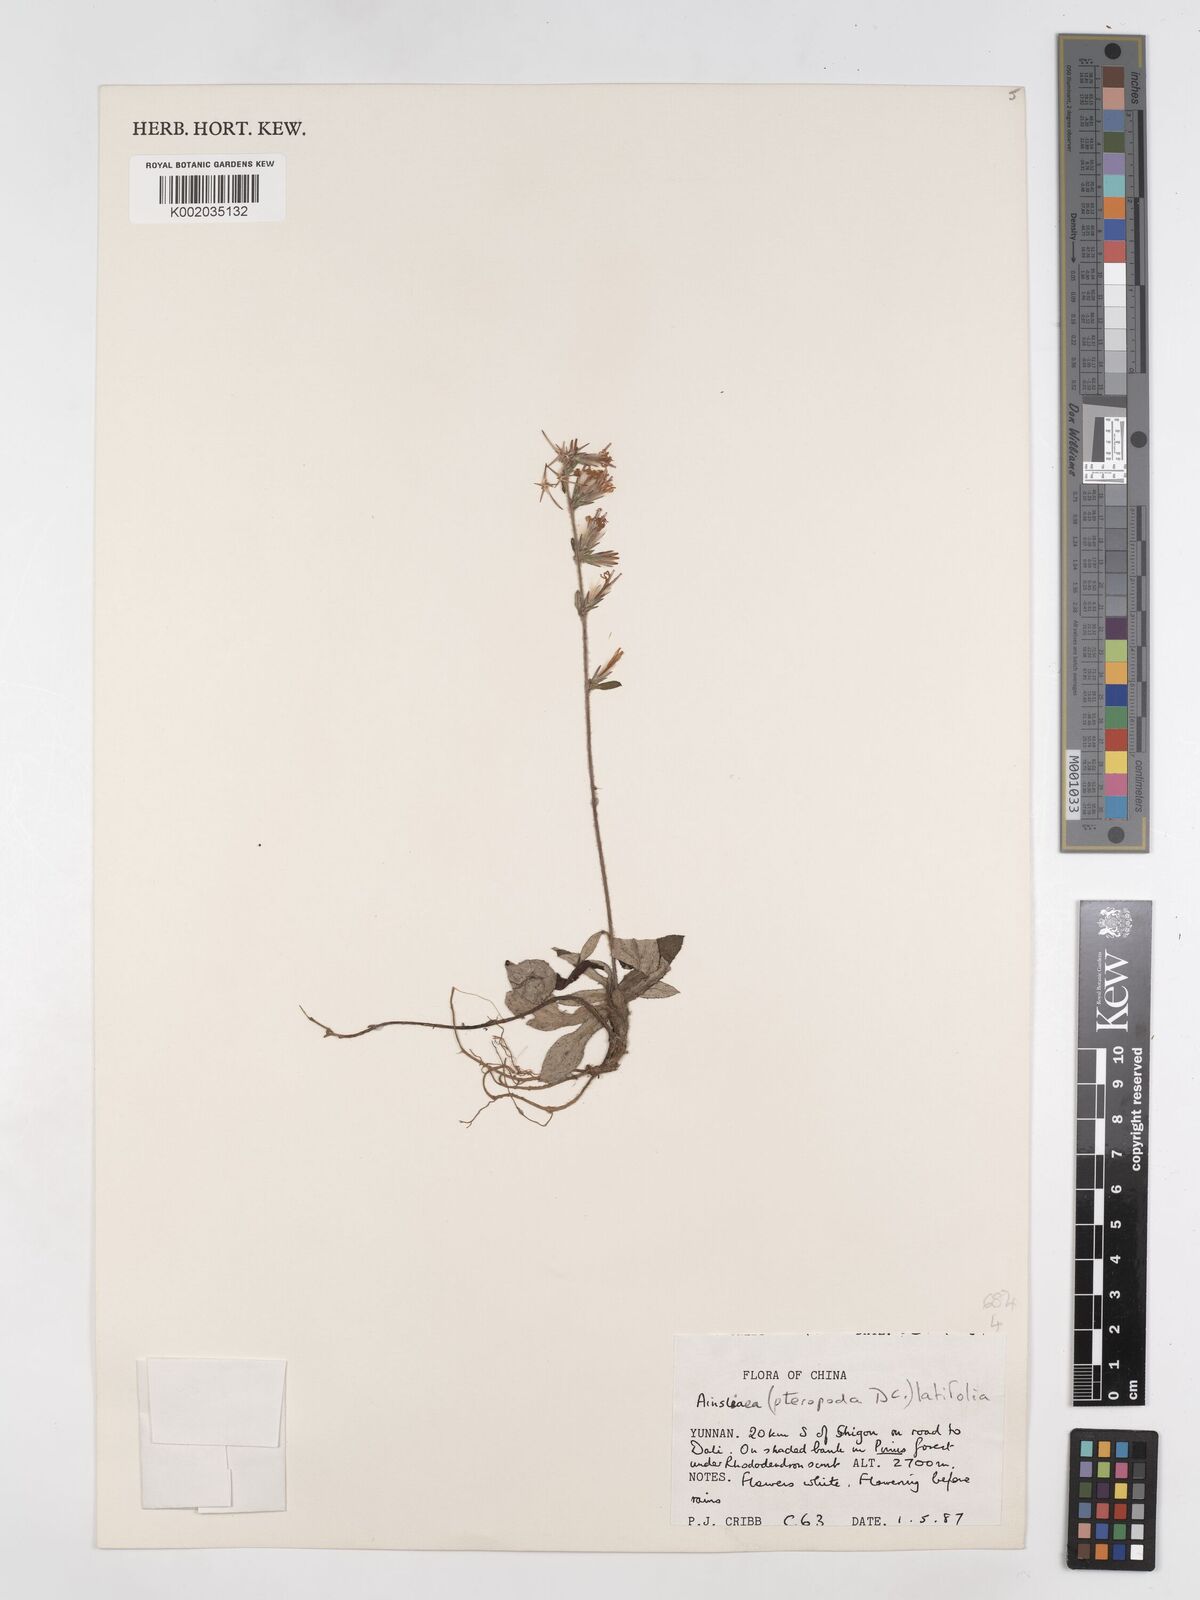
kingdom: Plantae
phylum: Tracheophyta
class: Magnoliopsida
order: Asterales
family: Asteraceae
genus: Ainsliaea
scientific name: Ainsliaea latifolia
